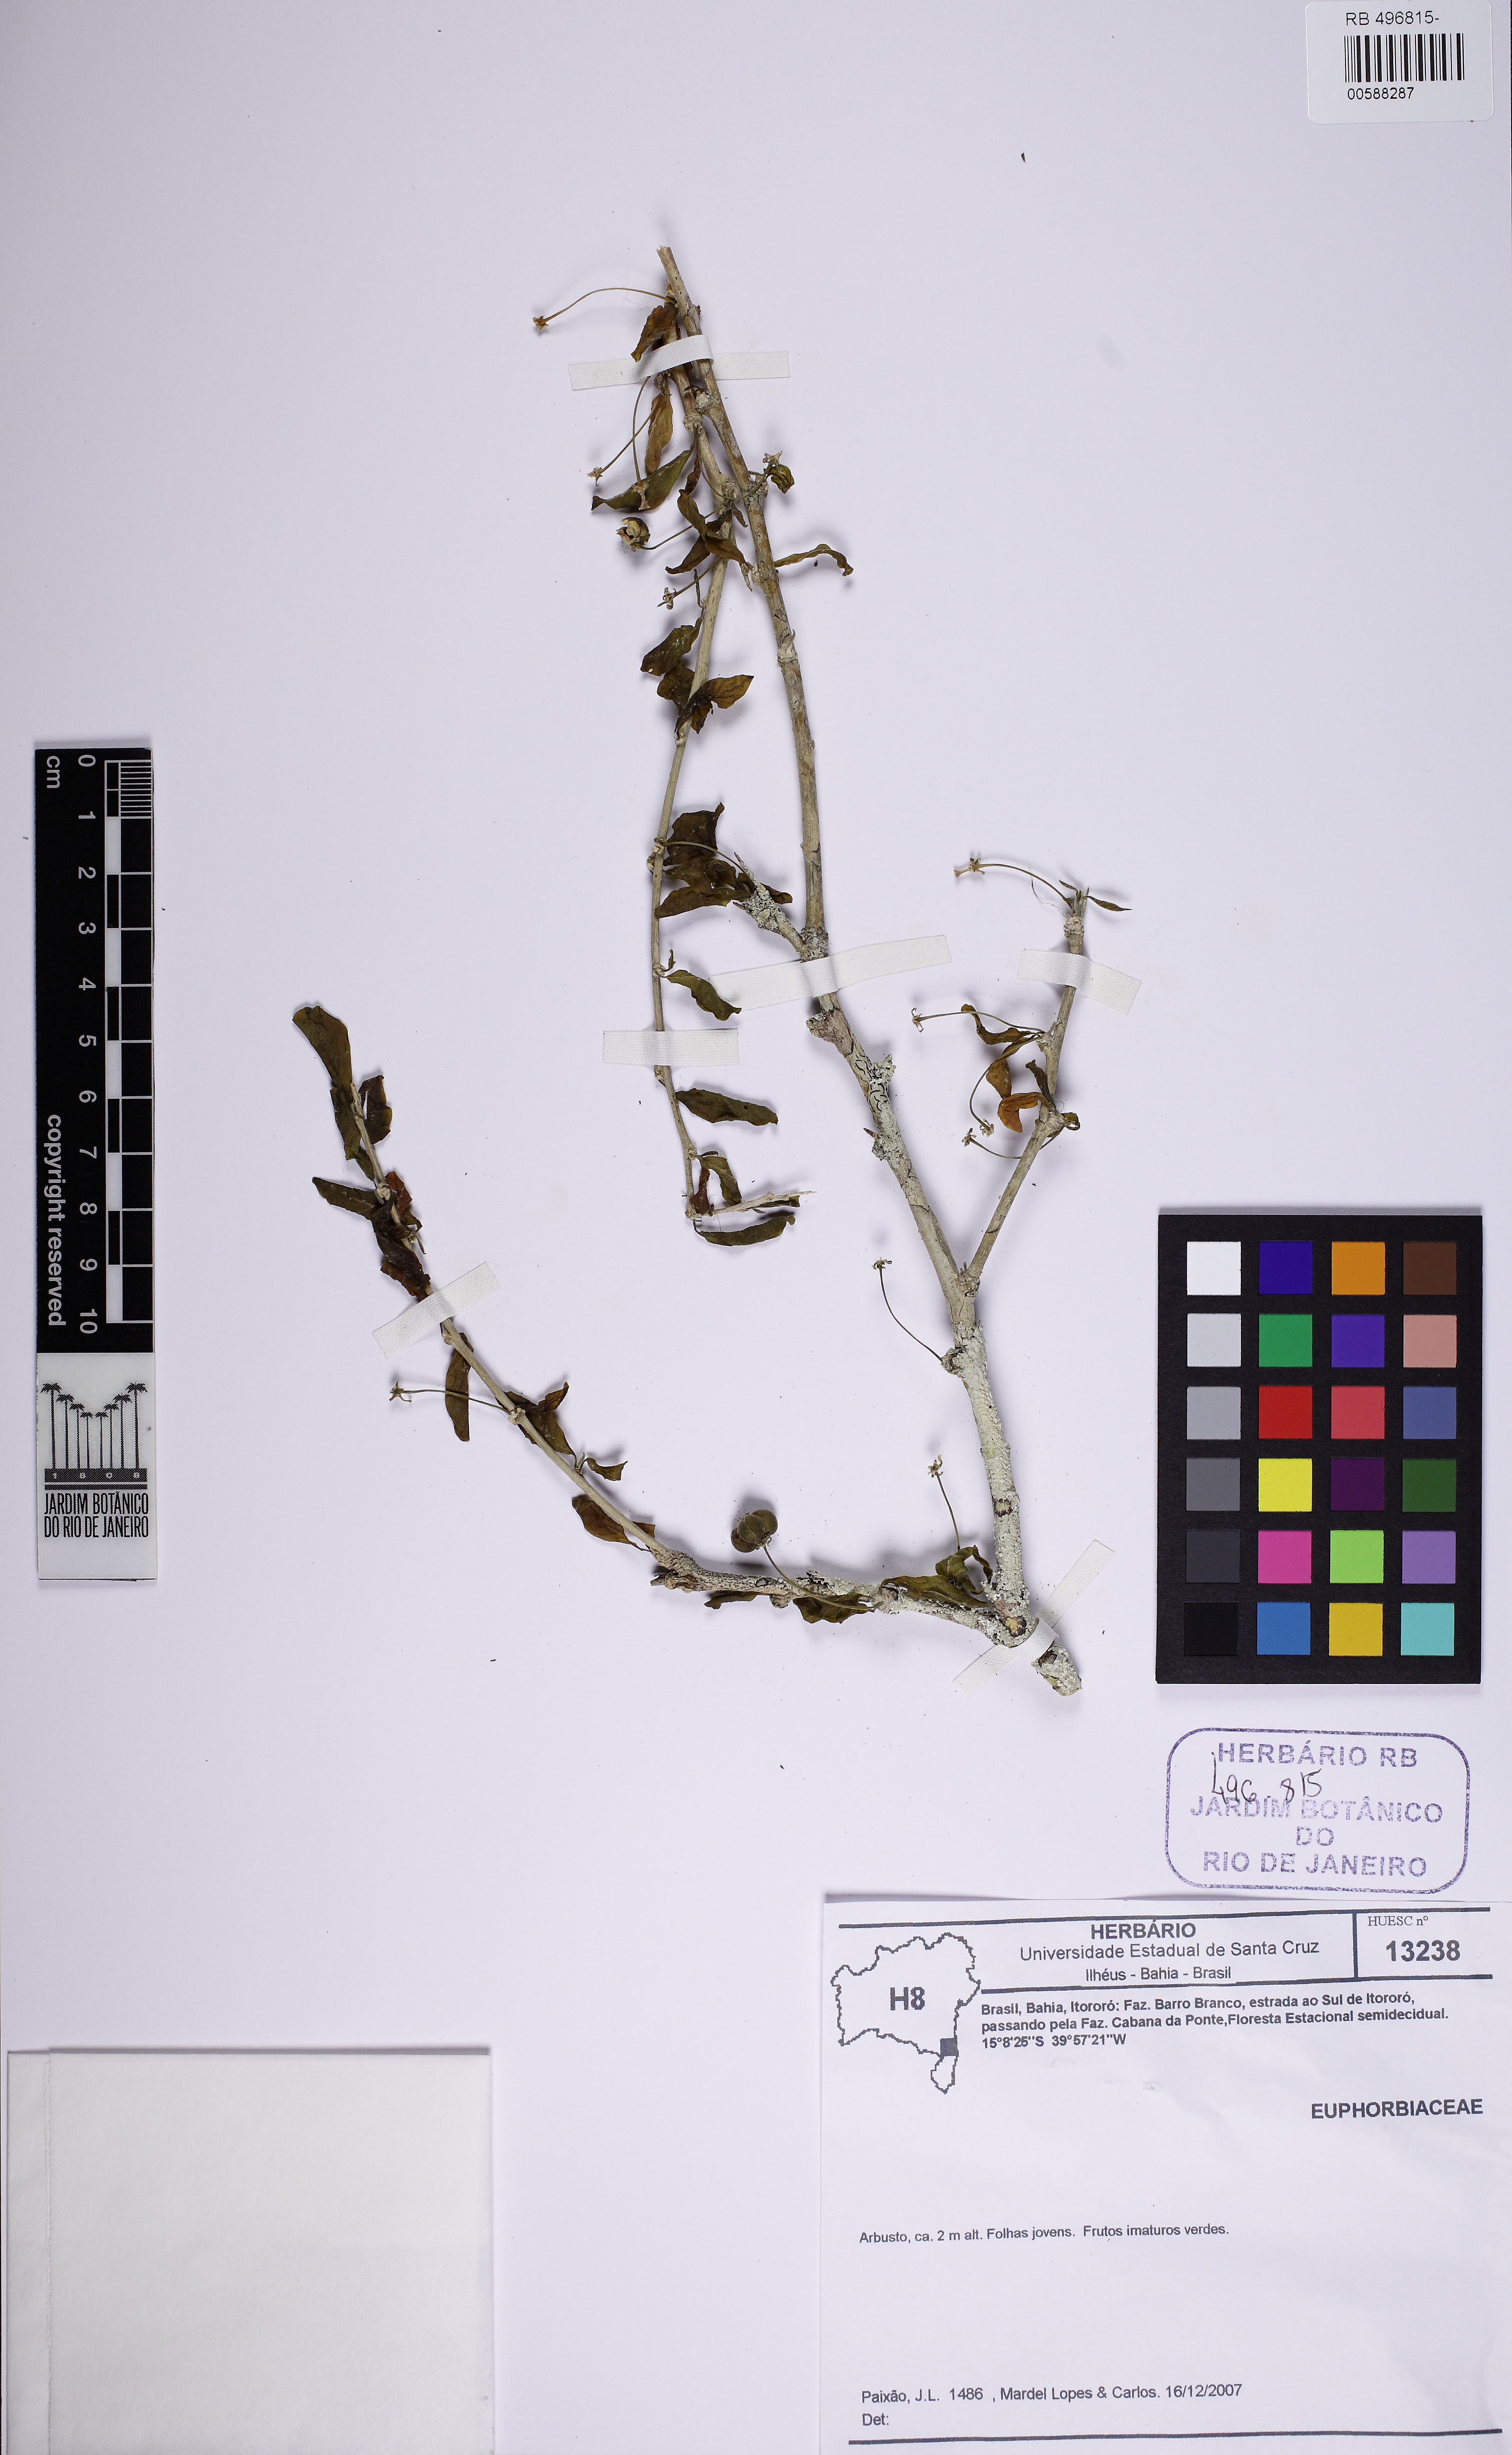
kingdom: Plantae
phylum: Tracheophyta
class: Magnoliopsida
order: Malpighiales
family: Euphorbiaceae
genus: Adelia
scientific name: Adelia membranifolia
